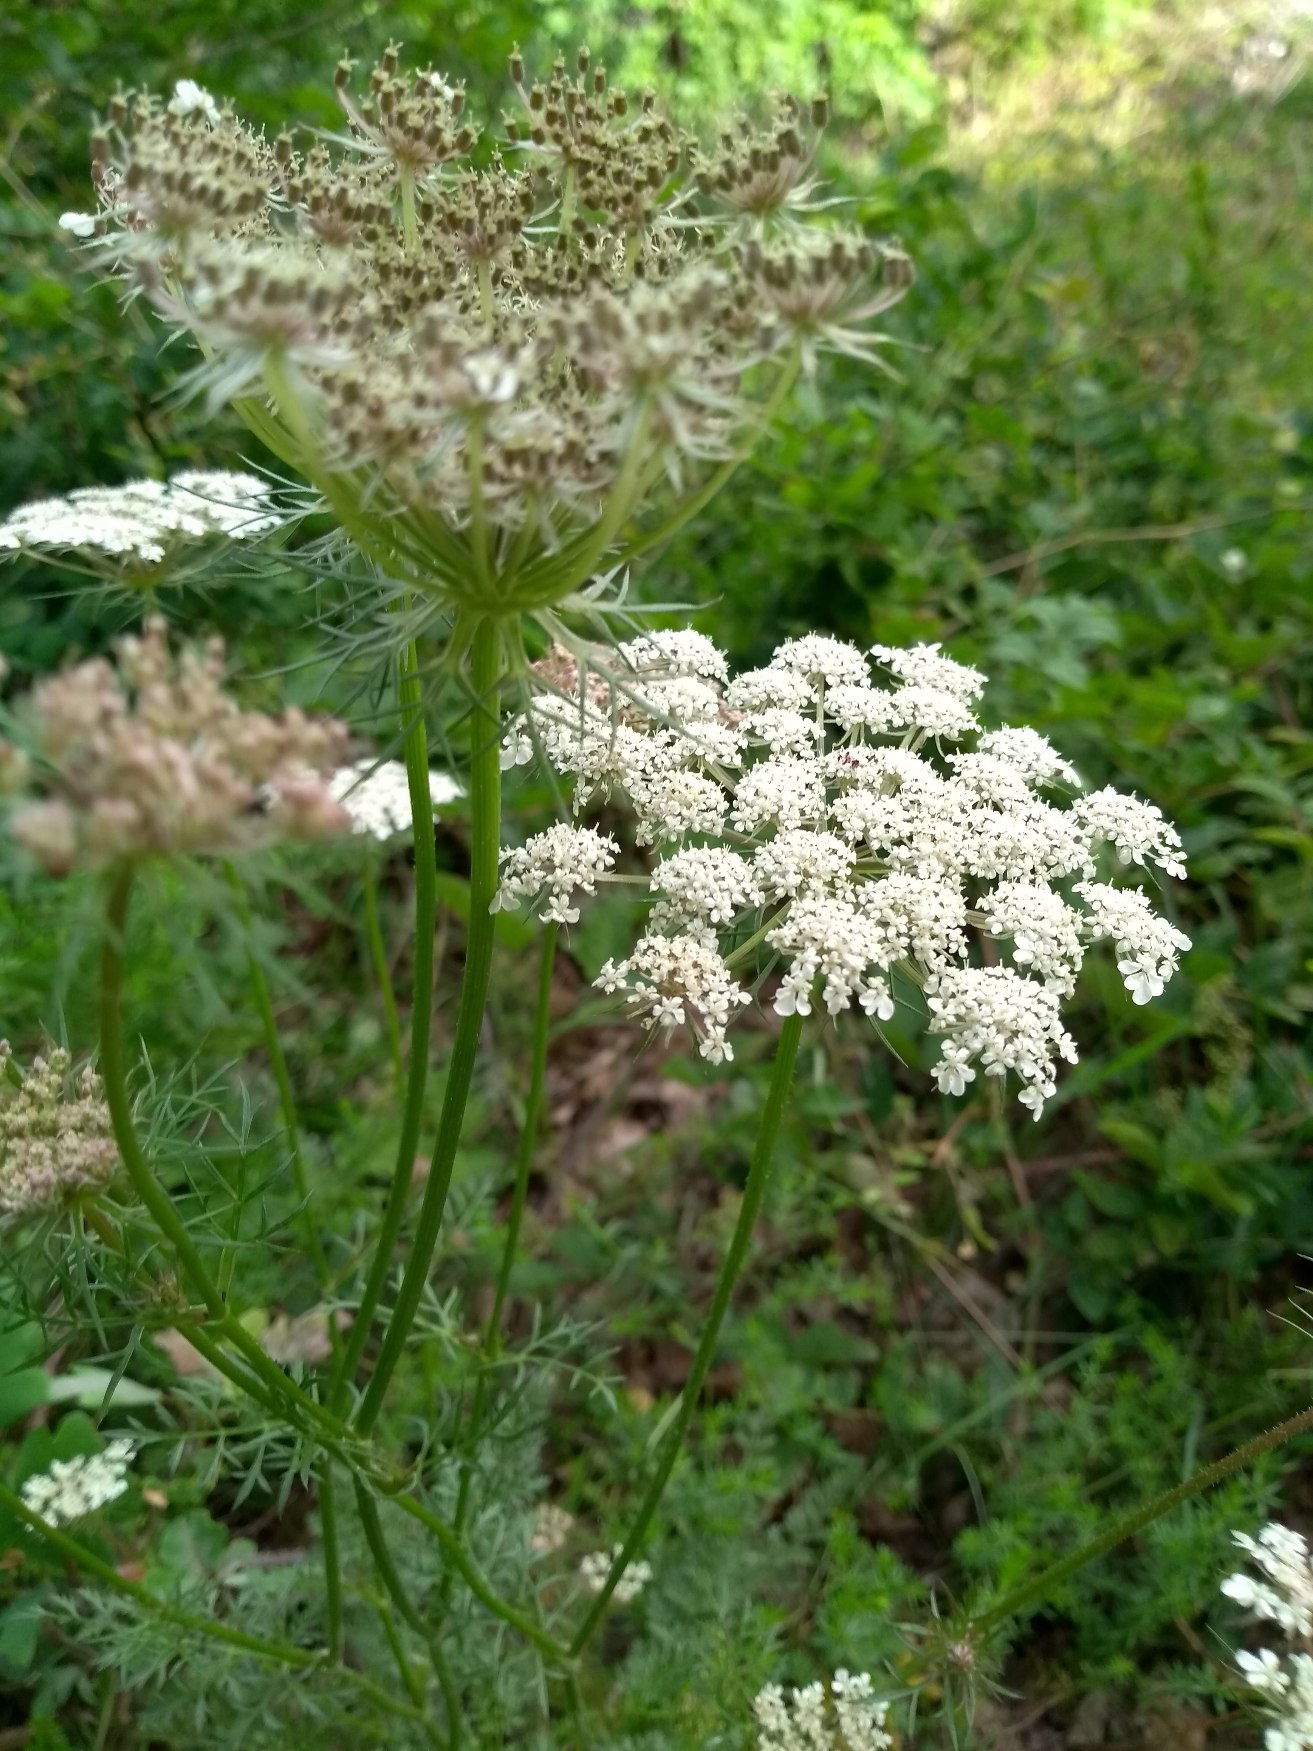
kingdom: Plantae
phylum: Tracheophyta
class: Magnoliopsida
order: Apiales
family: Apiaceae
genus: Daucus
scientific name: Daucus carota
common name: Gulerod
